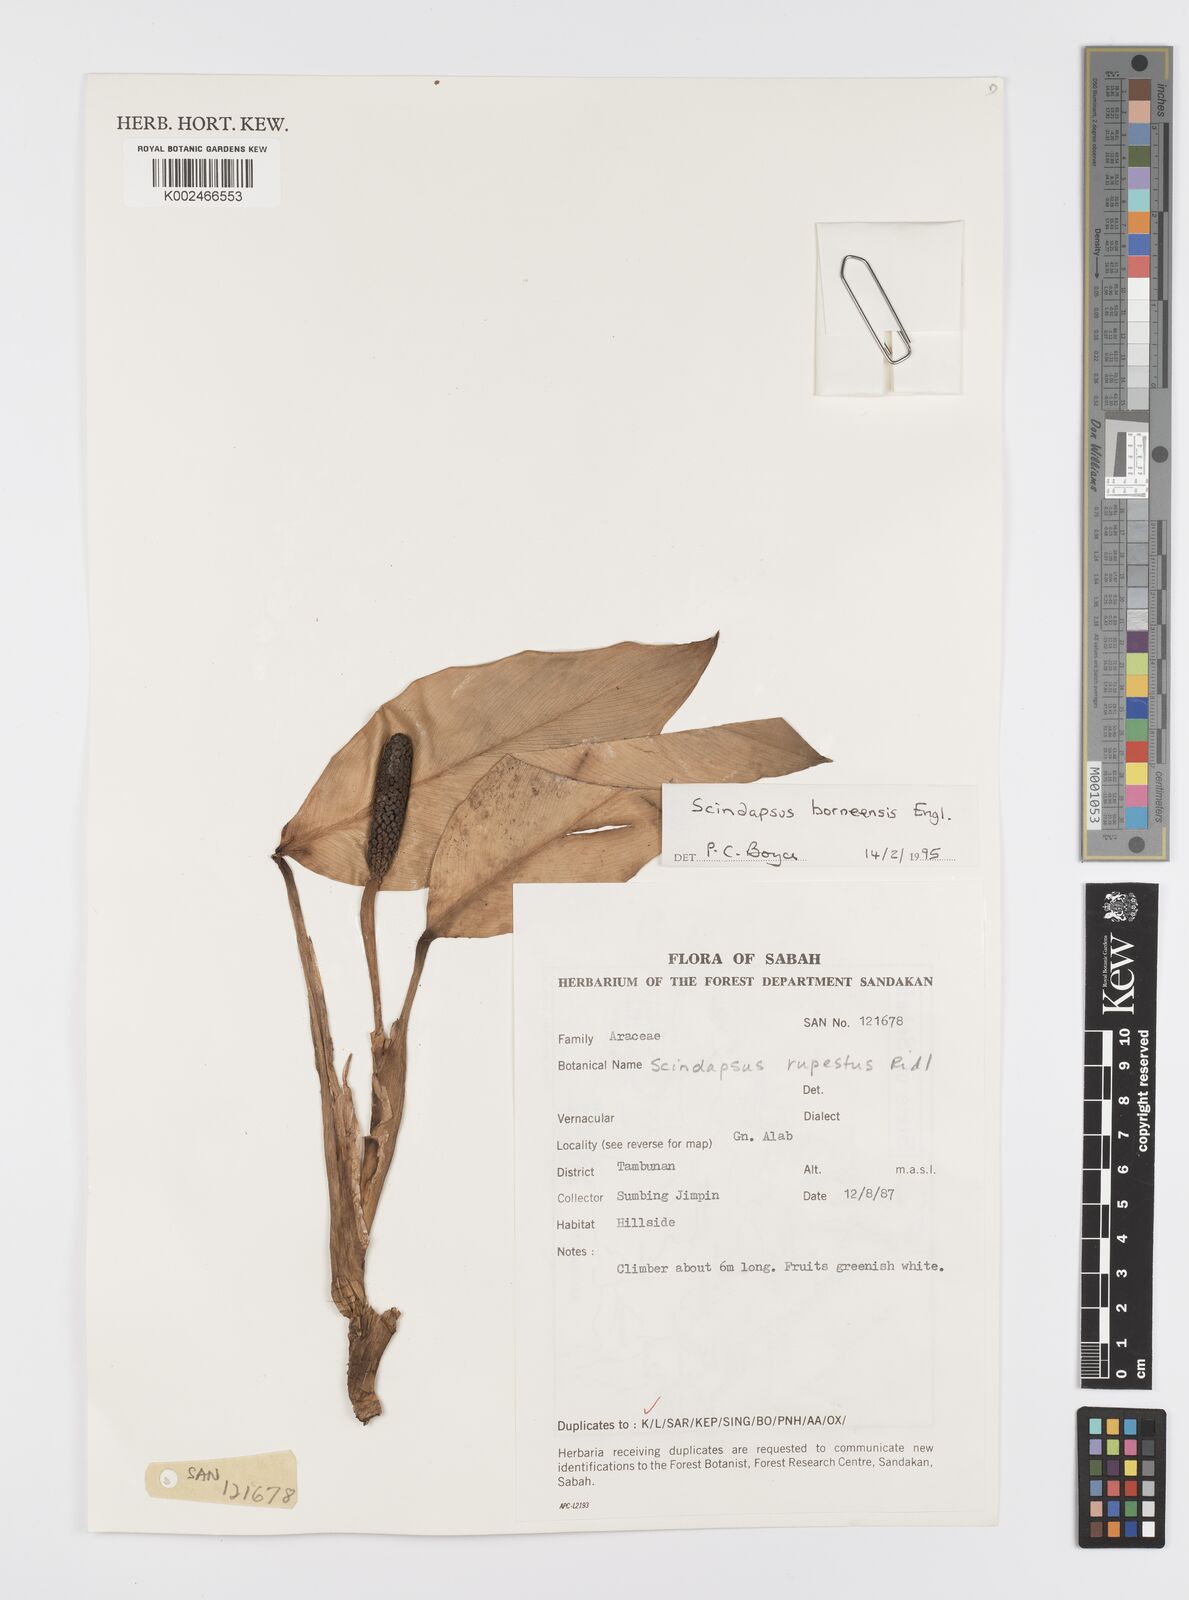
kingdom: Plantae
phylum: Tracheophyta
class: Liliopsida
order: Alismatales
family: Araceae
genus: Scindapsus
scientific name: Scindapsus coriaceus
